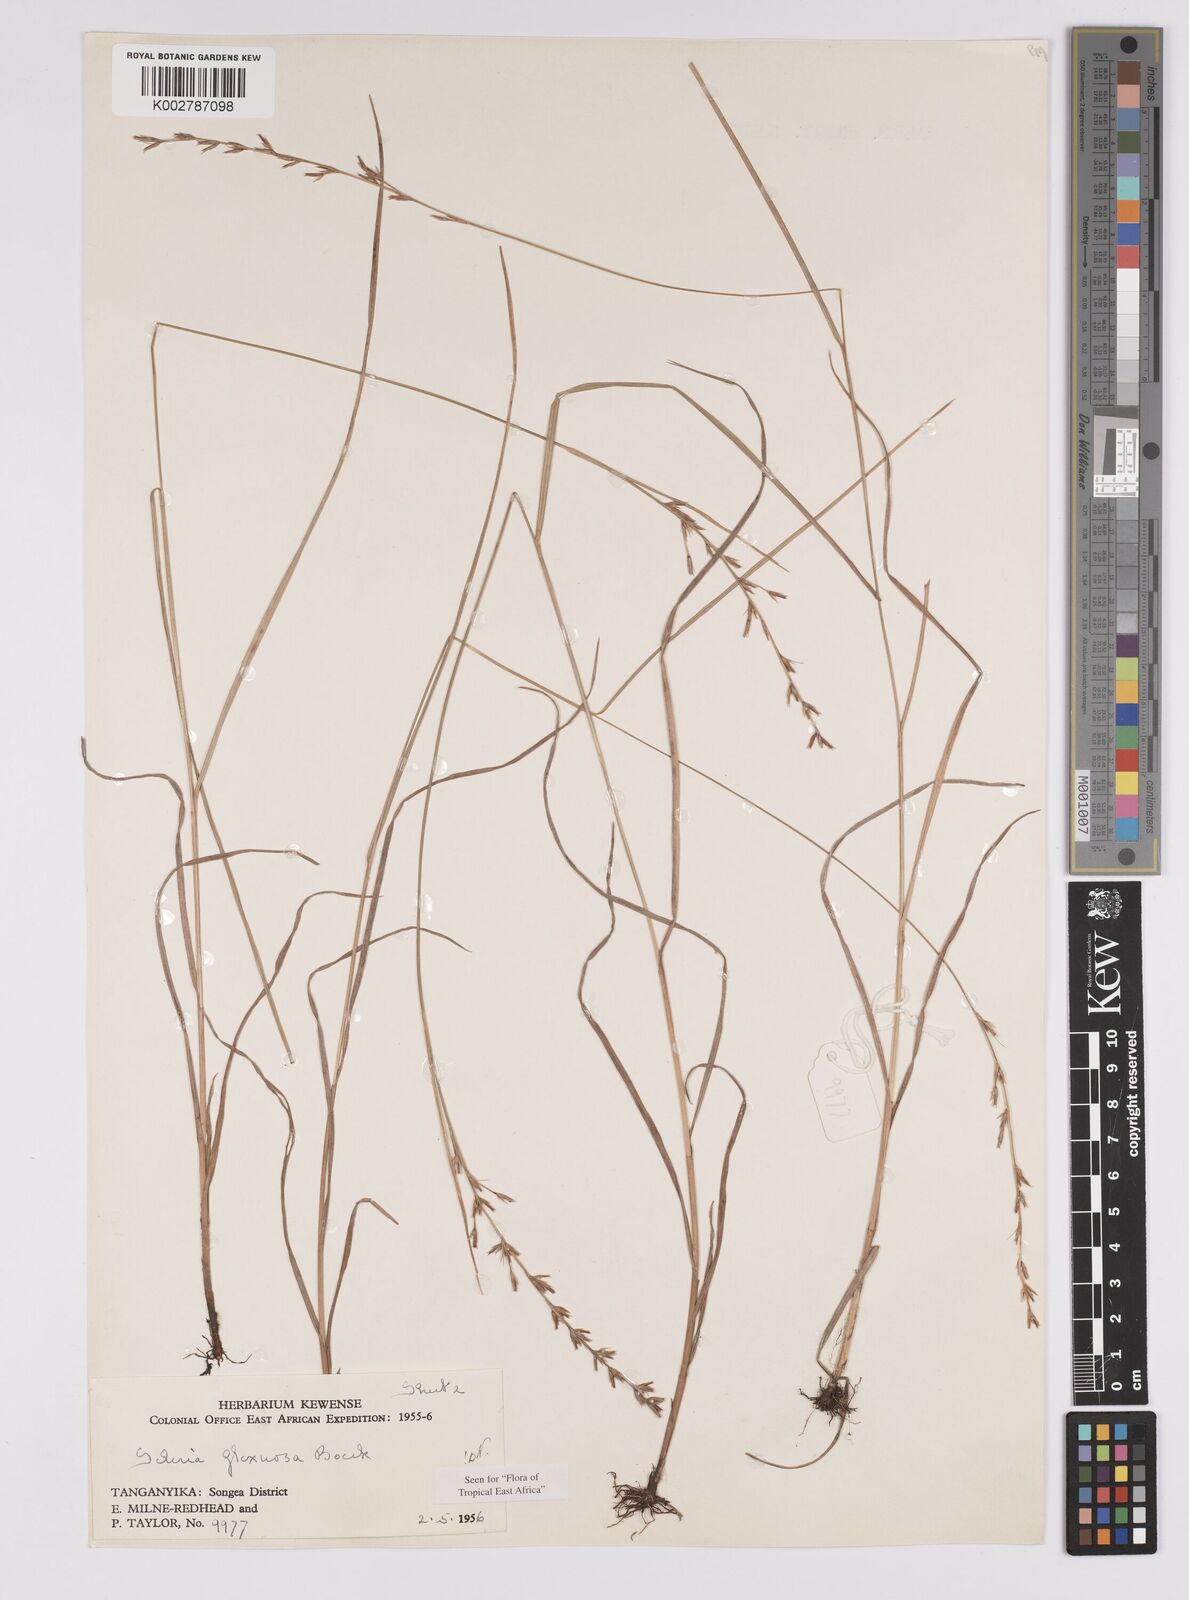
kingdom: Plantae
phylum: Tracheophyta
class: Liliopsida
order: Poales
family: Cyperaceae
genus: Scleria
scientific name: Scleria flexuosa
